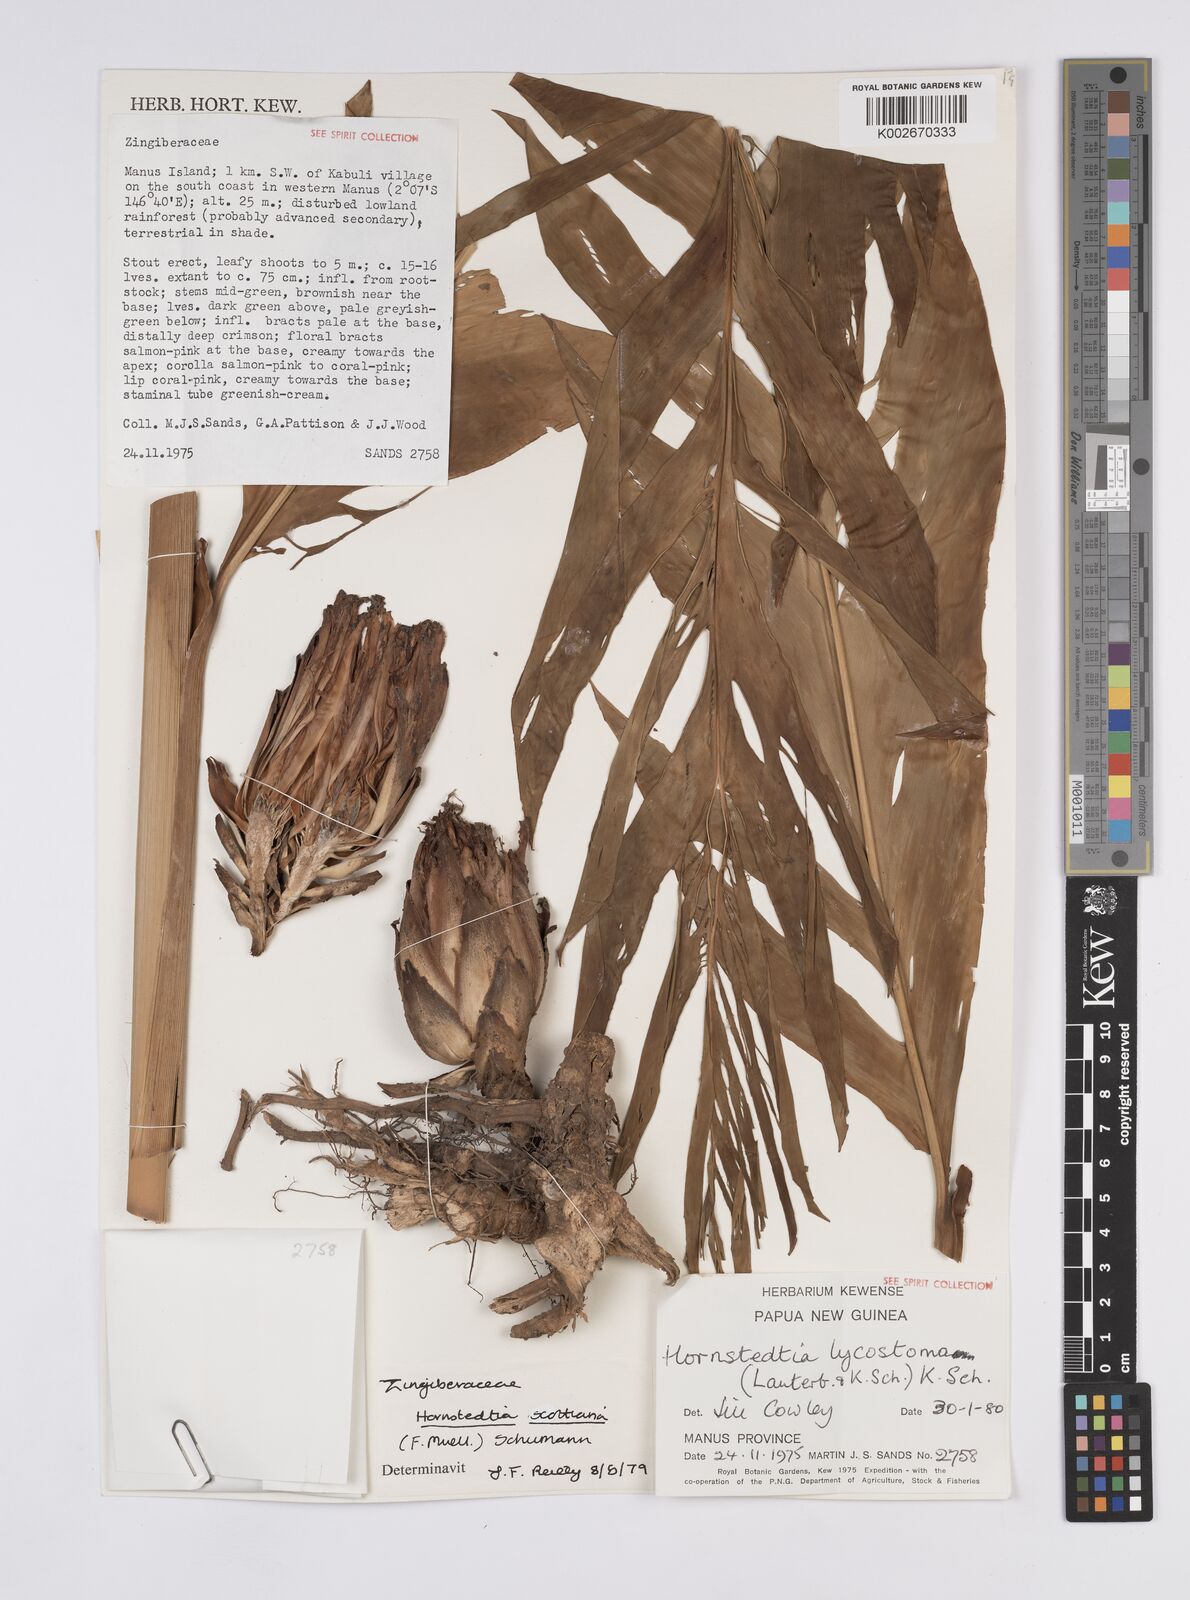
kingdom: Plantae
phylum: Tracheophyta
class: Liliopsida
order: Zingiberales
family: Zingiberaceae
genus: Hornstedtia
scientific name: Hornstedtia scottiana
